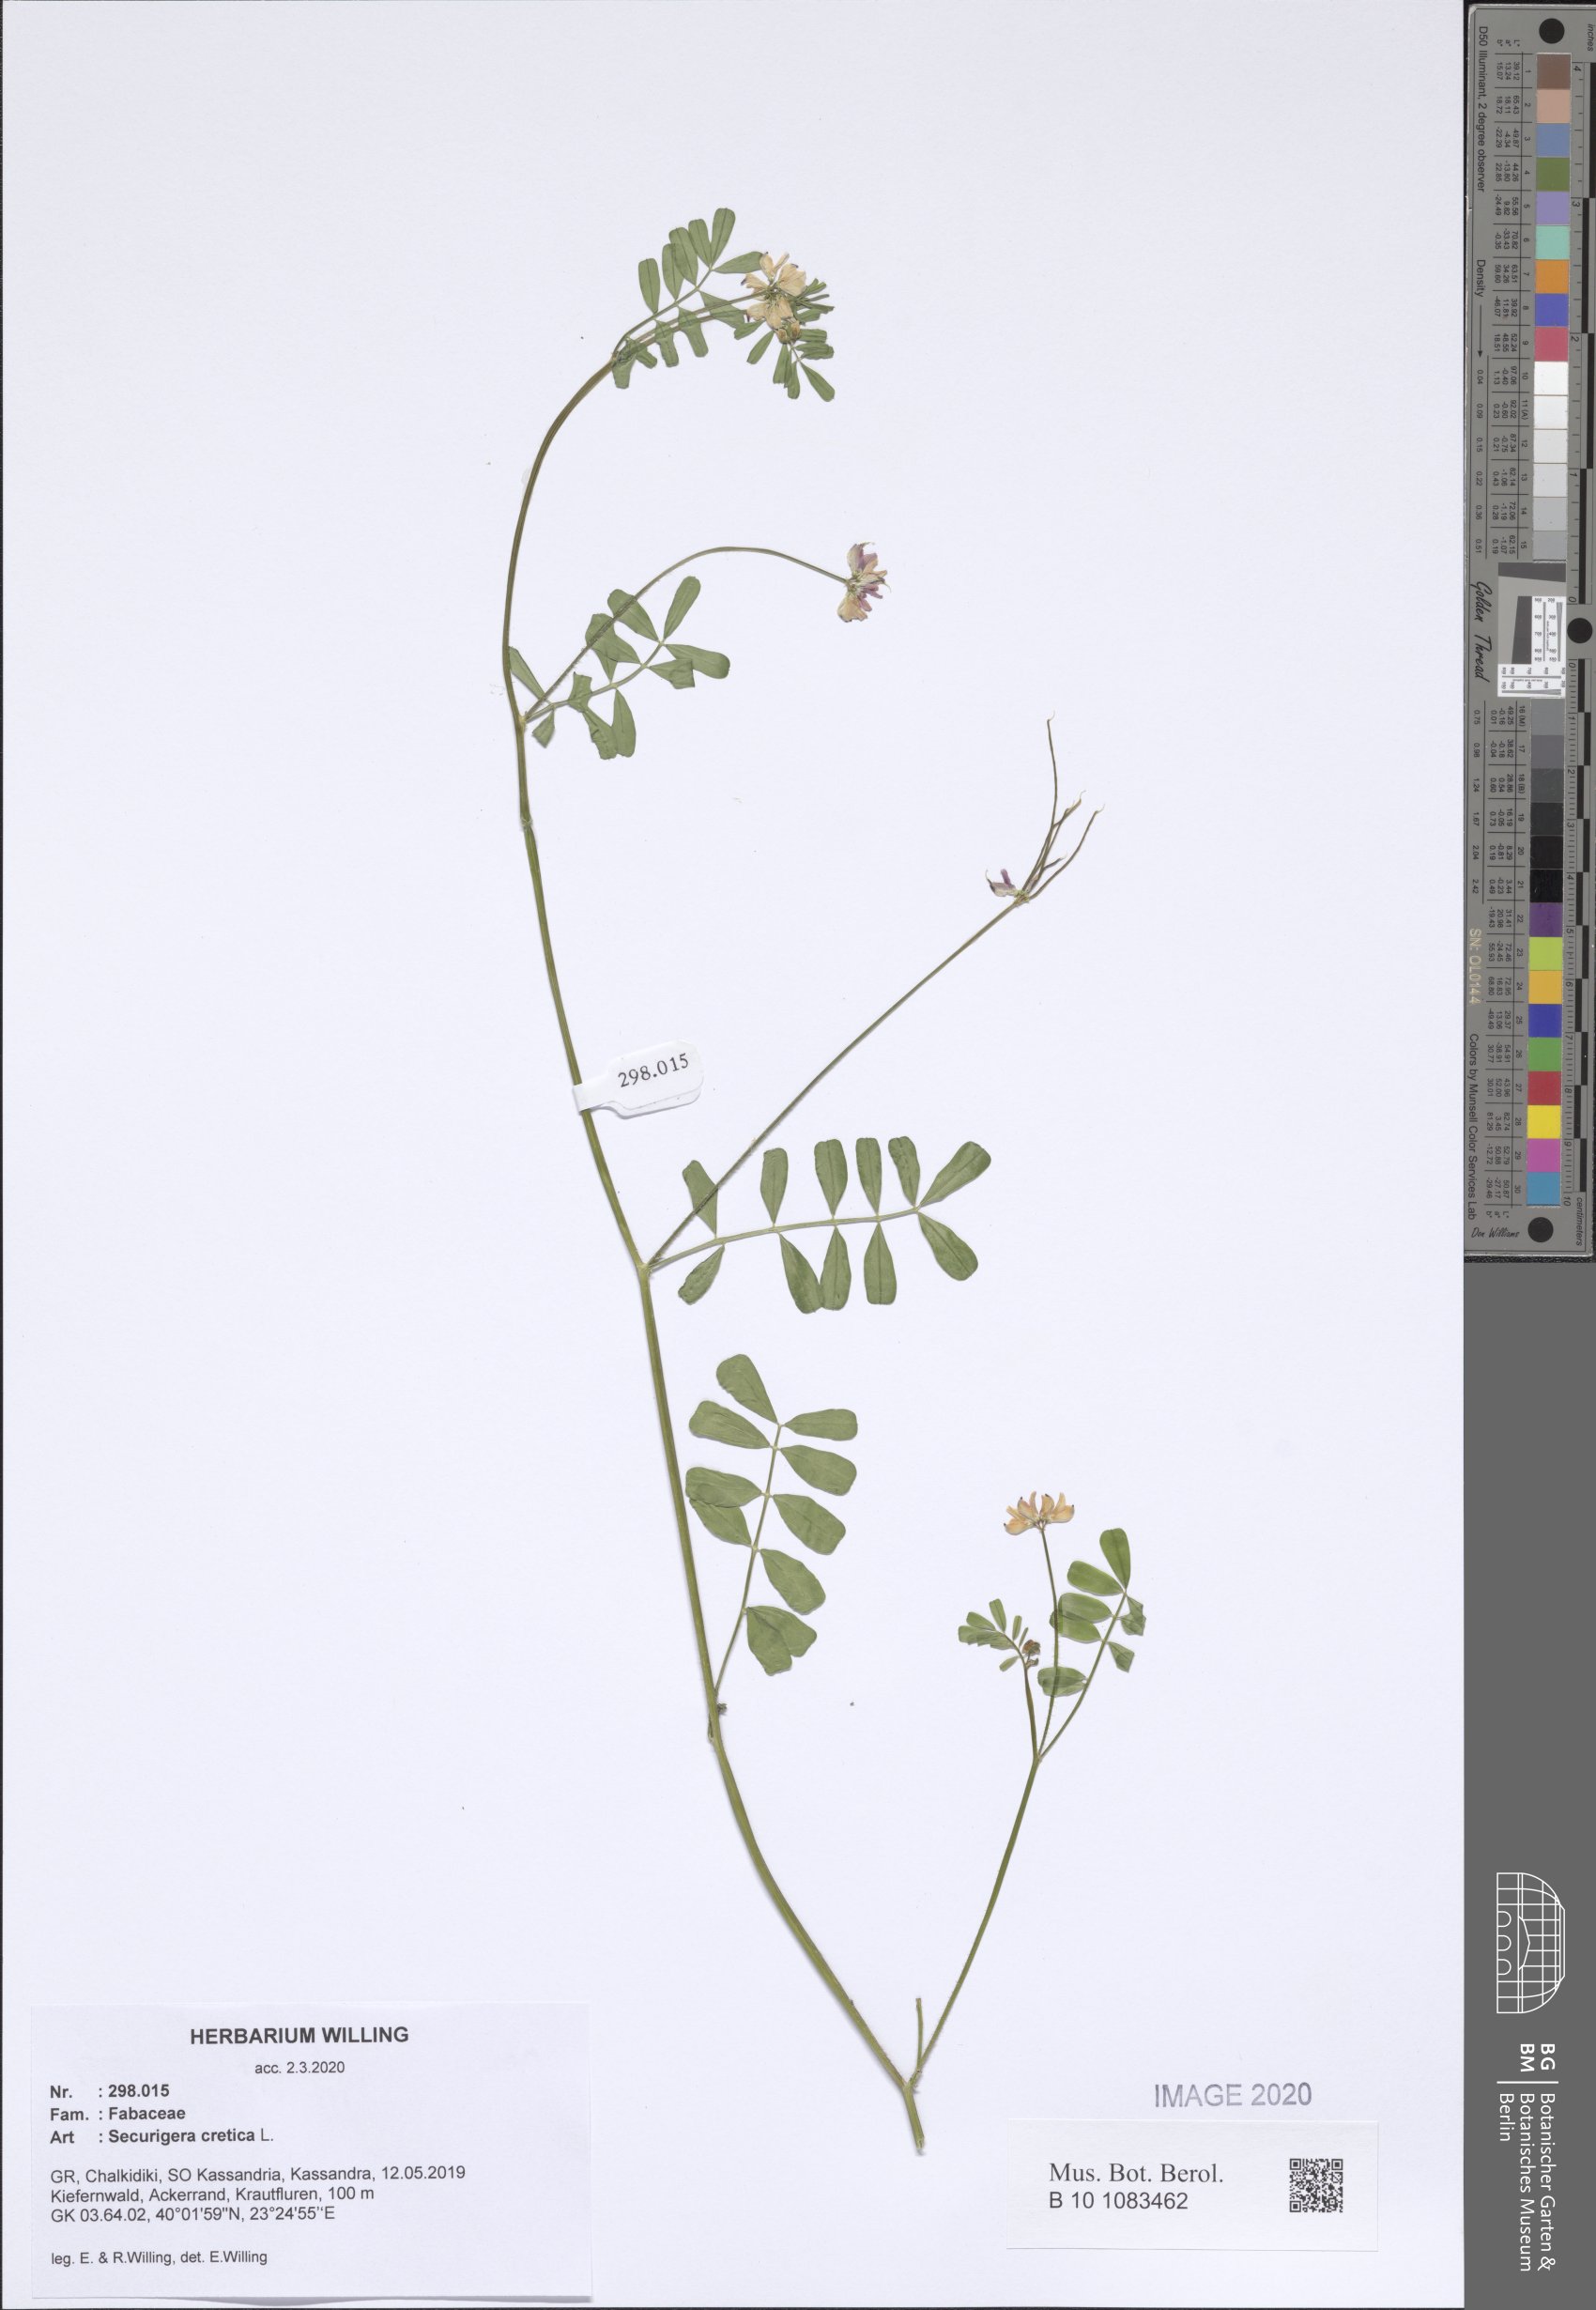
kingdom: Plantae
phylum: Tracheophyta
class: Magnoliopsida
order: Fabales
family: Fabaceae
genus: Coronilla
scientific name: Coronilla cretica
